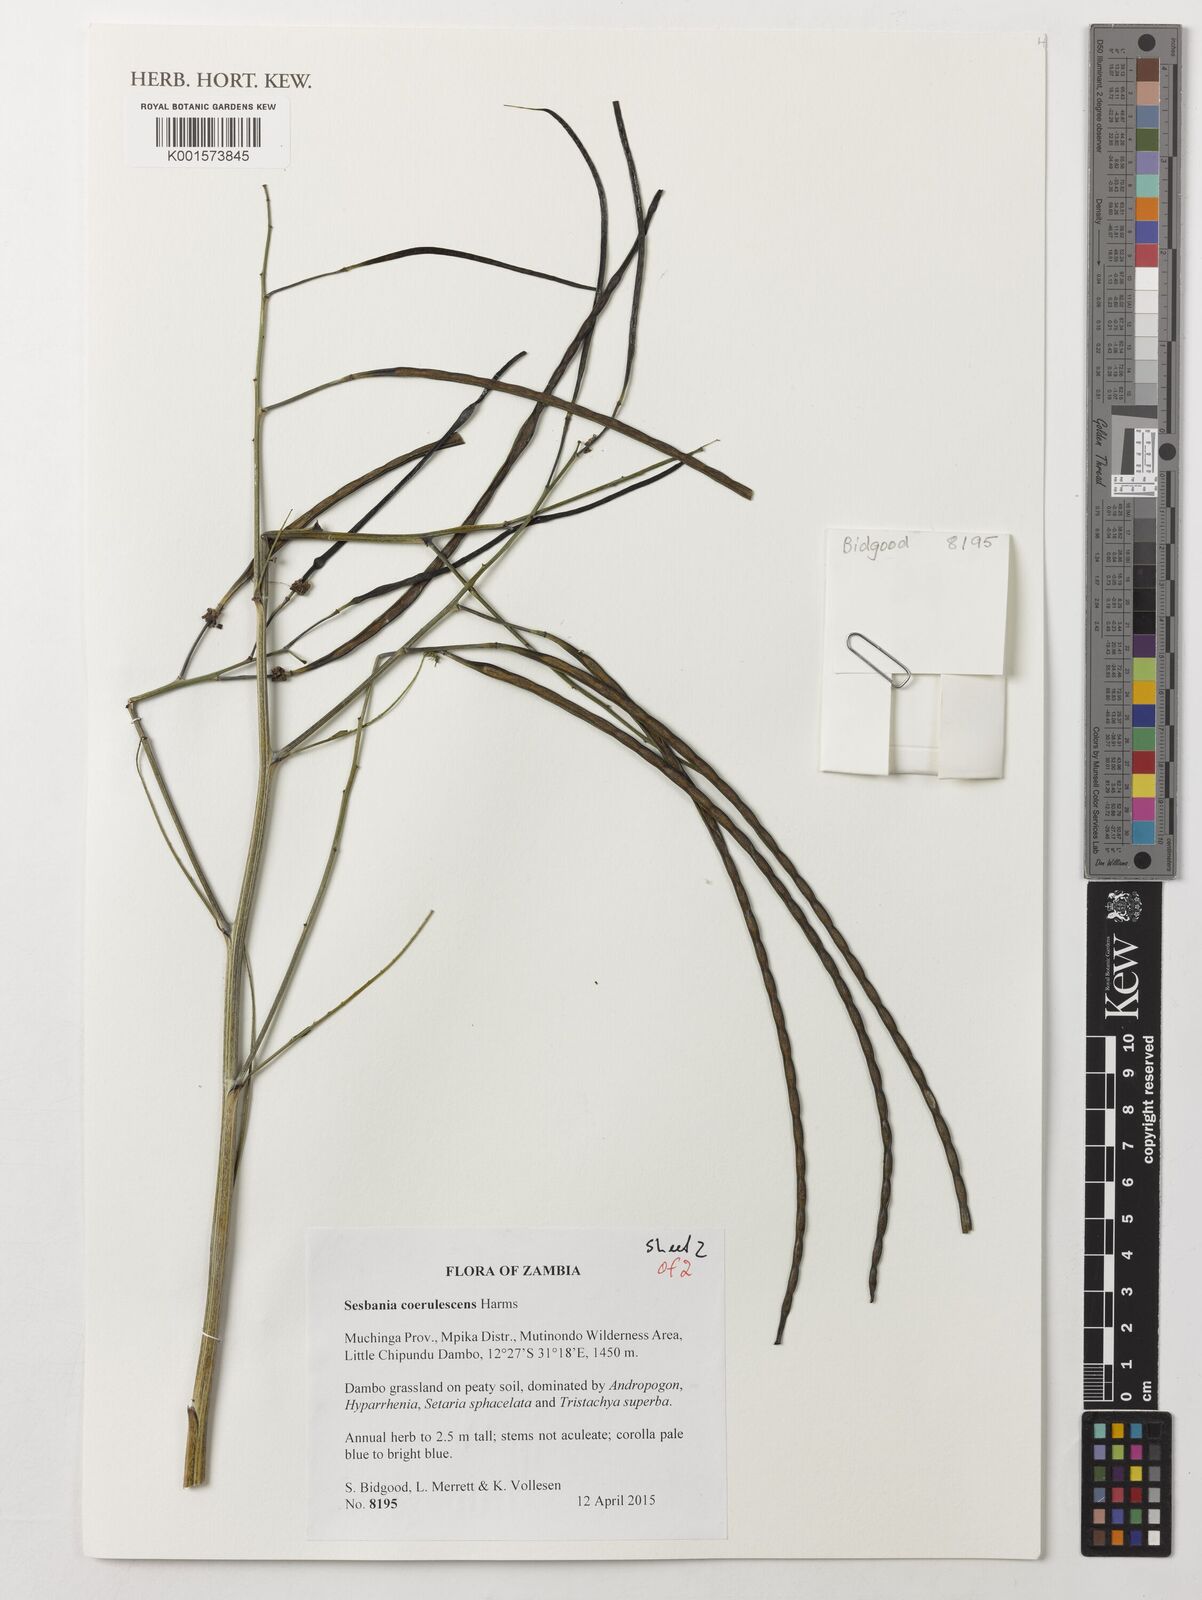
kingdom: Plantae
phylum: Tracheophyta
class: Magnoliopsida
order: Fabales
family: Fabaceae
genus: Sesbania
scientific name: Sesbania coerulescens
